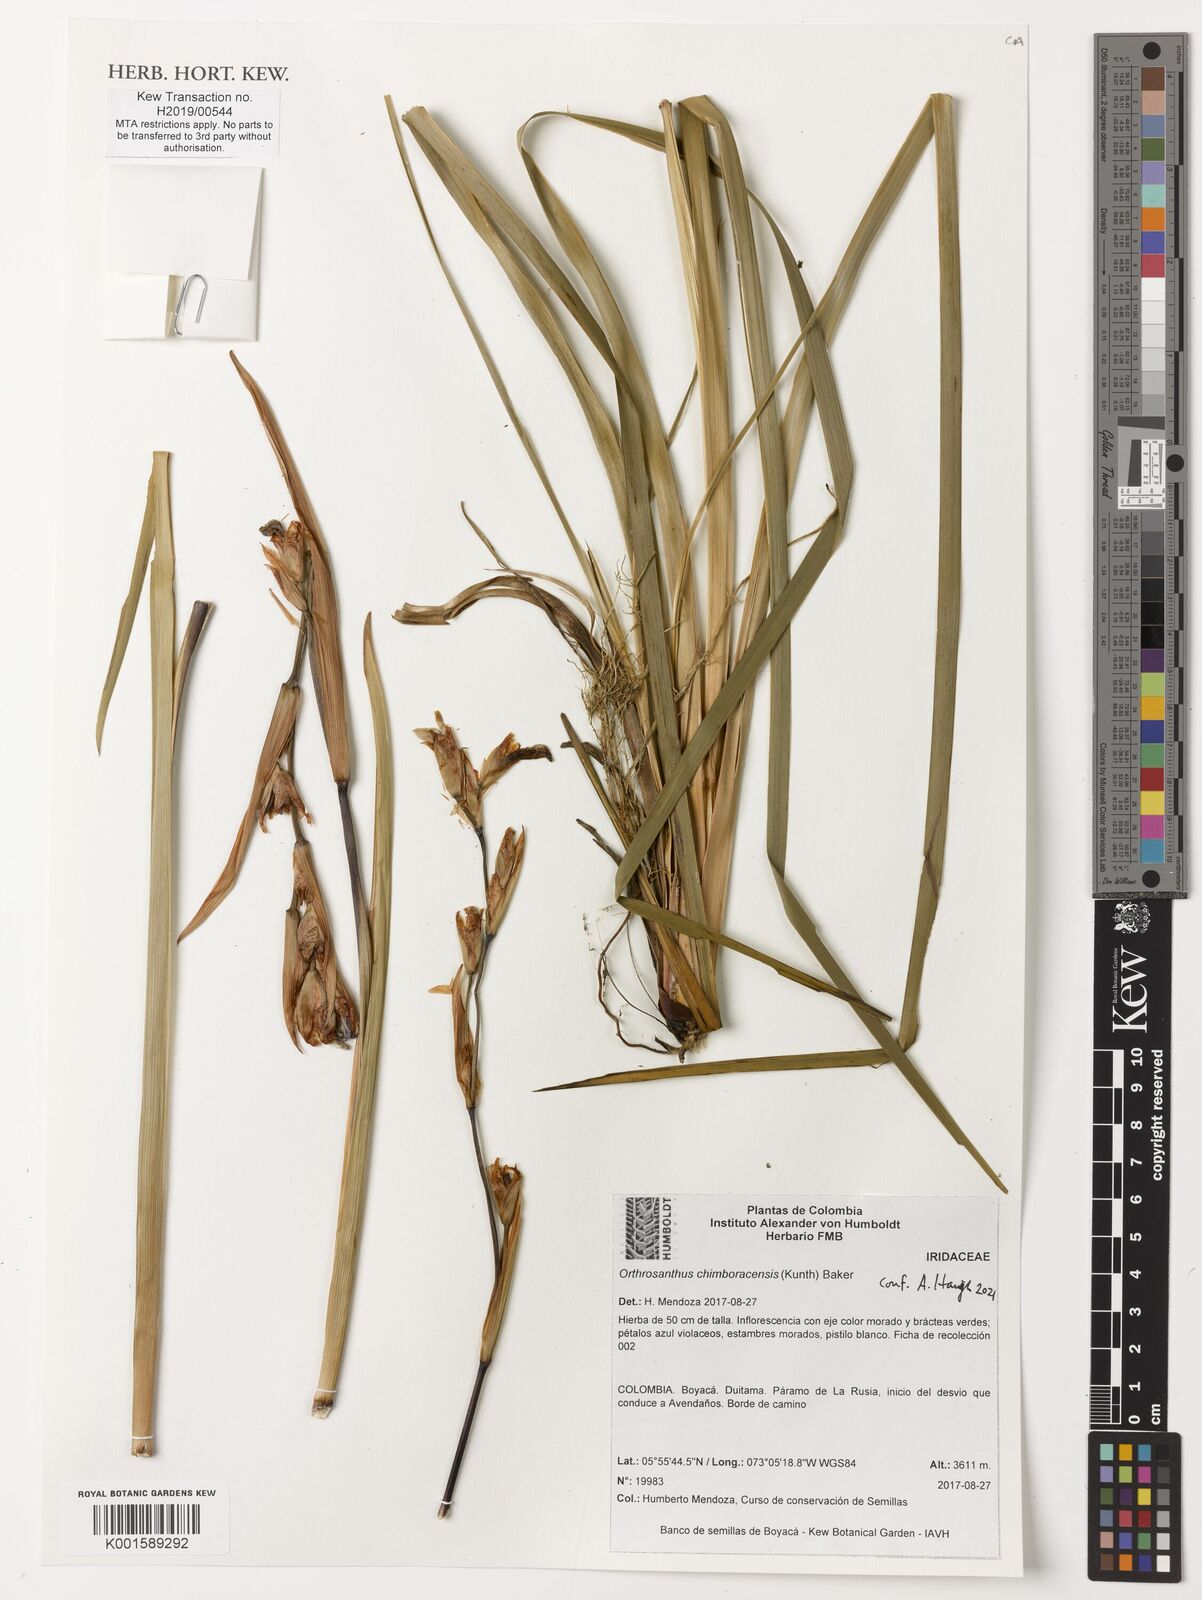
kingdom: Plantae
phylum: Tracheophyta
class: Liliopsida
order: Asparagales
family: Iridaceae
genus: Orthrosanthus
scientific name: Orthrosanthus chimboracensis
